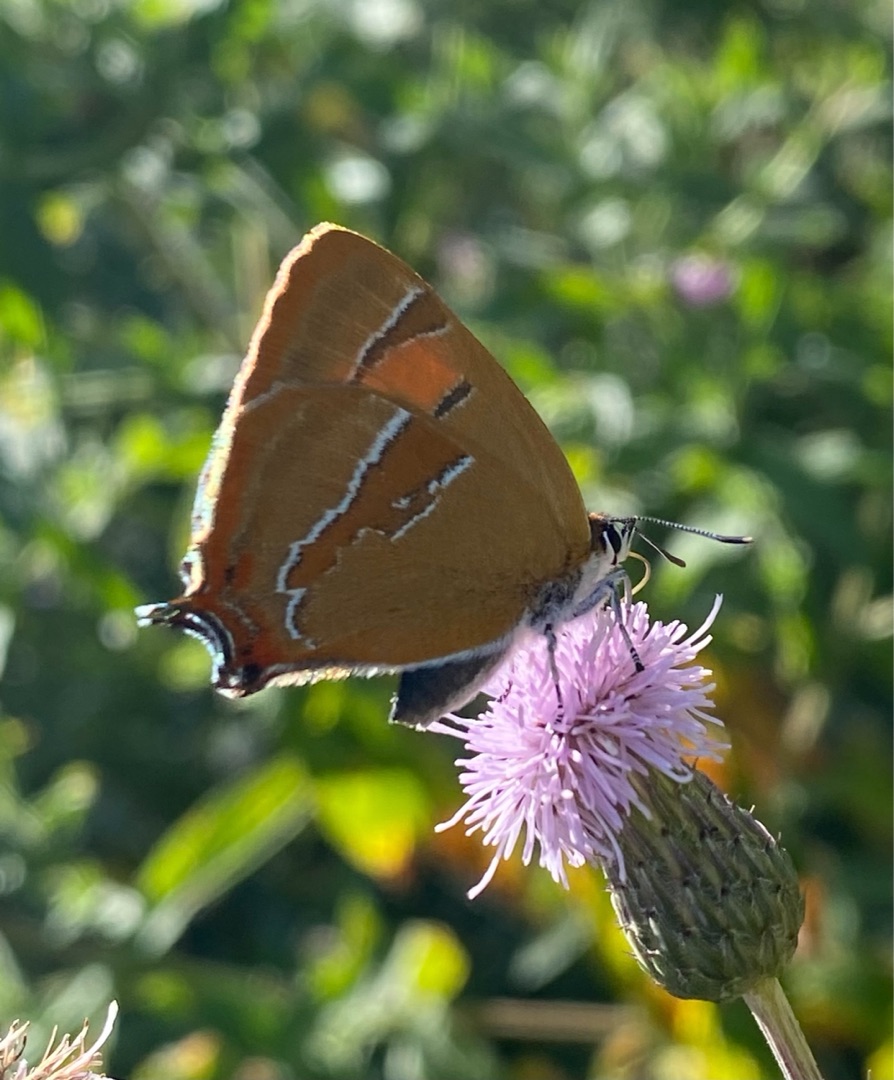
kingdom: Animalia
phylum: Arthropoda
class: Insecta
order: Lepidoptera
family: Lycaenidae
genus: Thecla
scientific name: Thecla betulae
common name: Guldhale
